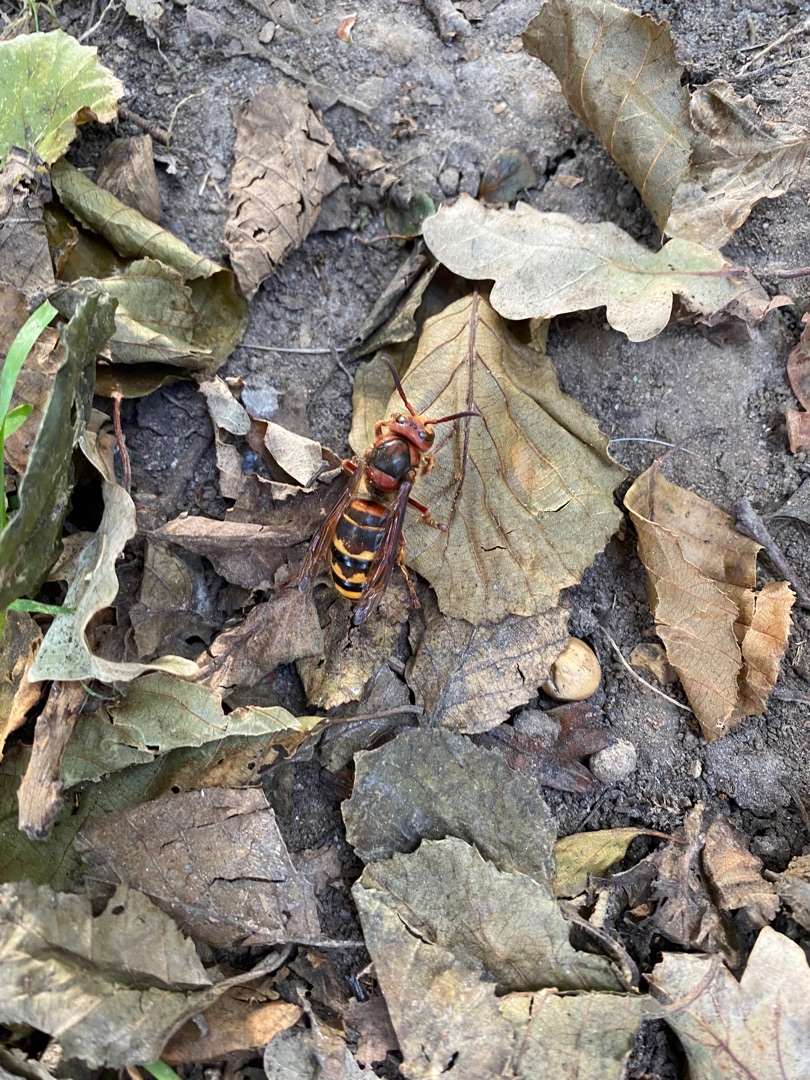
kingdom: Animalia
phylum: Arthropoda
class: Insecta
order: Hymenoptera
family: Vespidae
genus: Vespa
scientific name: Vespa crabro
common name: Stor gedehams
